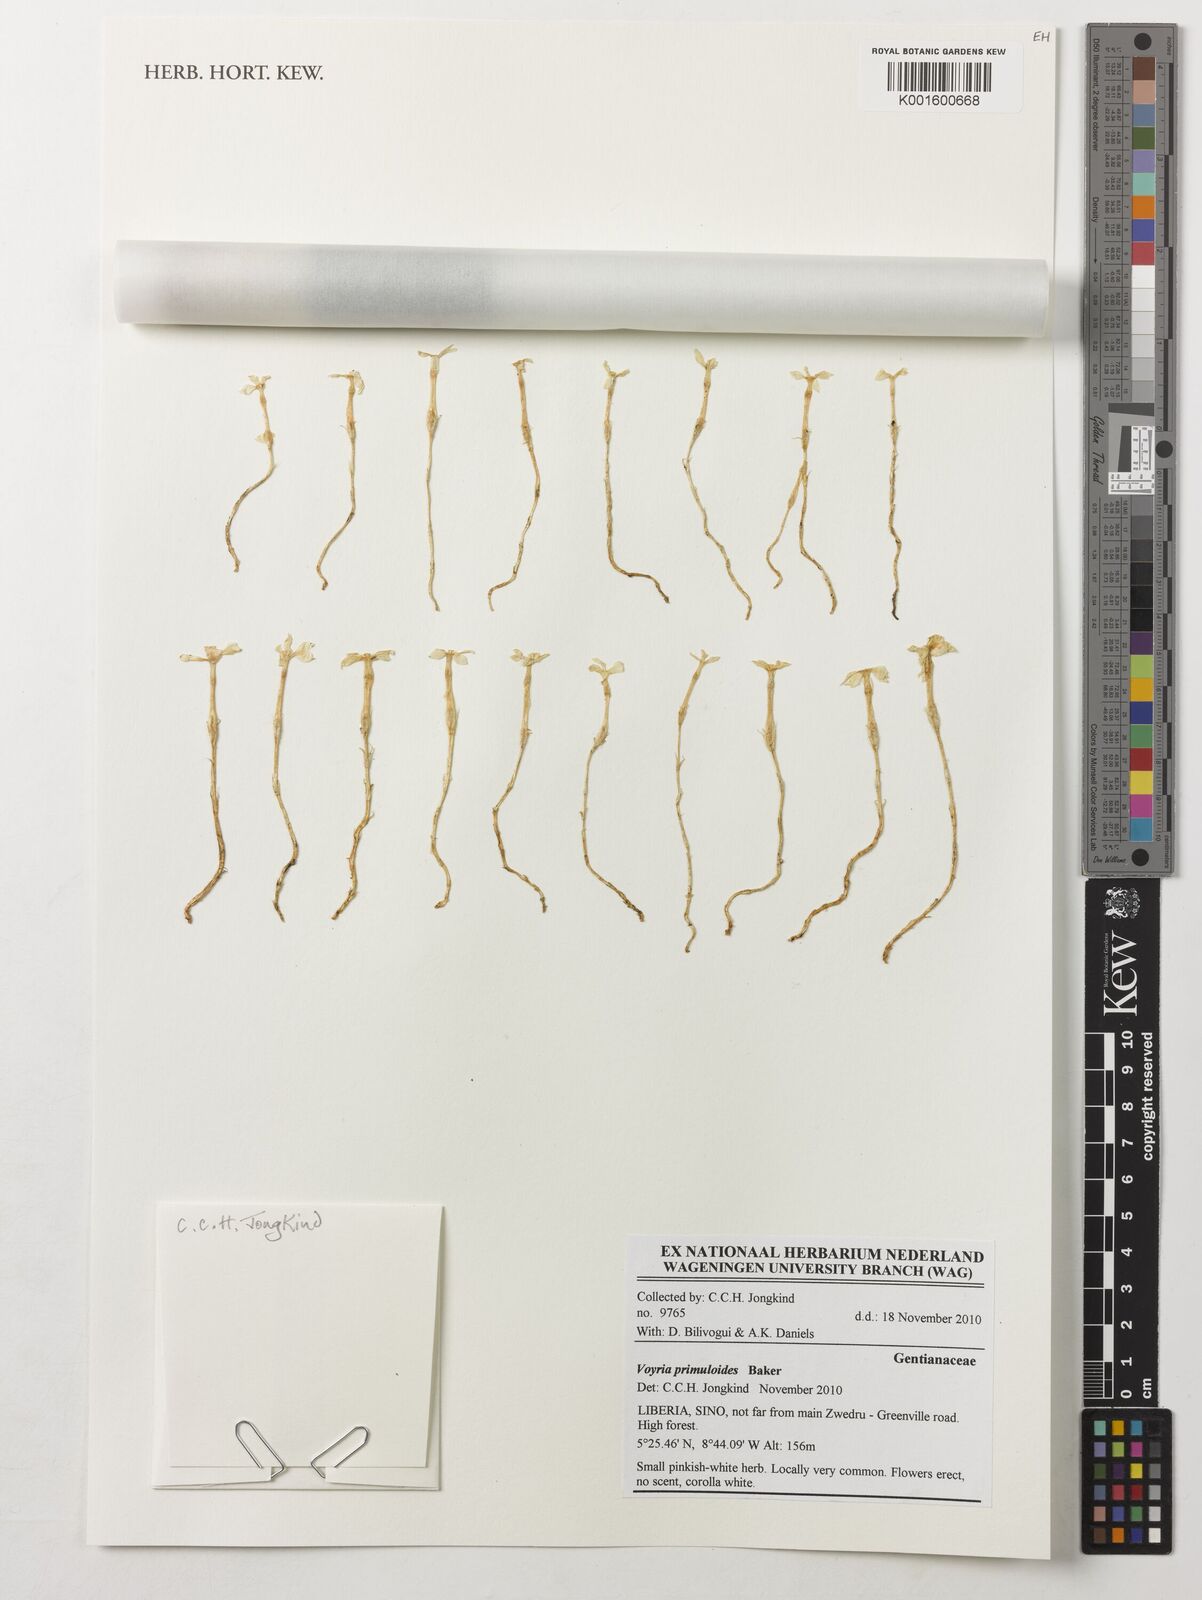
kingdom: Plantae
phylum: Tracheophyta
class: Magnoliopsida
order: Gentianales
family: Gentianaceae
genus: Voyria
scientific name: Voyria primuloides
